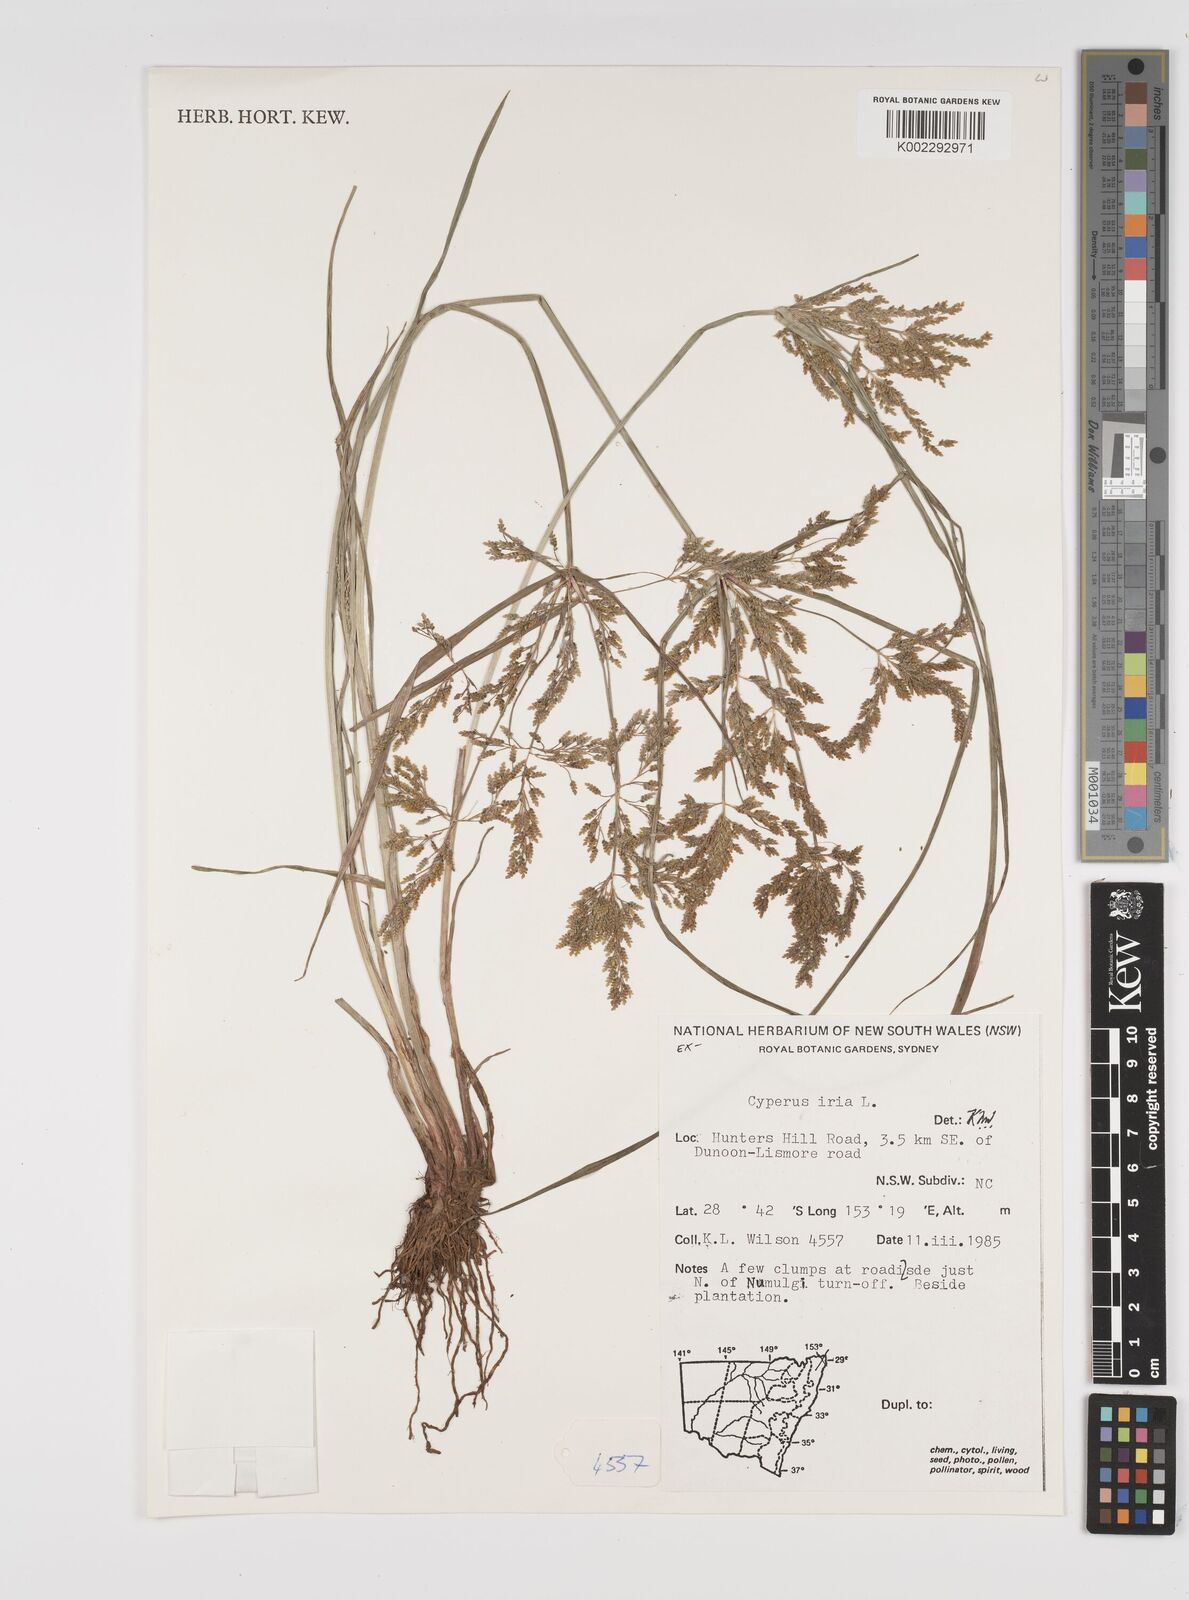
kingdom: Plantae
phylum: Tracheophyta
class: Liliopsida
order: Poales
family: Cyperaceae
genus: Cyperus
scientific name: Cyperus iria
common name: Ricefield flatsedge
